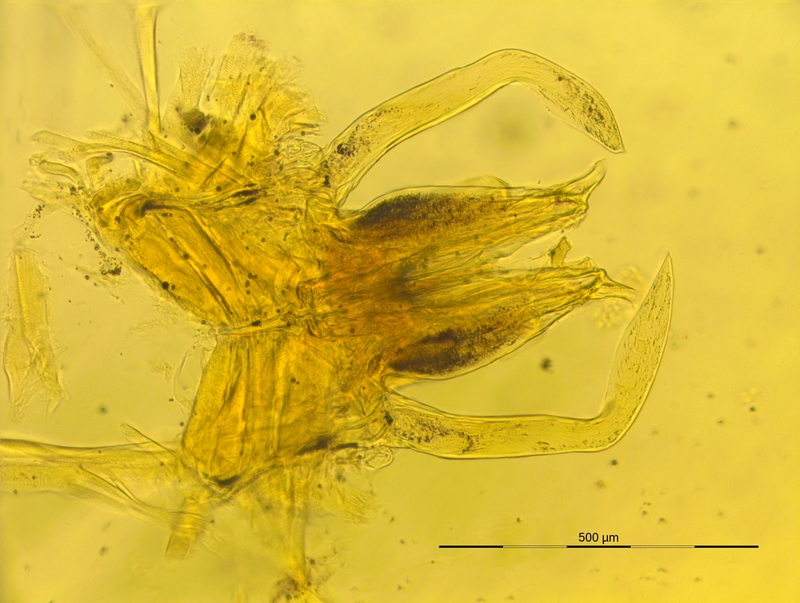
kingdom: Animalia
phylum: Arthropoda
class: Diplopoda
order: Chordeumatida
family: Craspedosomatidae
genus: Iulogona
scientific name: Iulogona tirolensis
